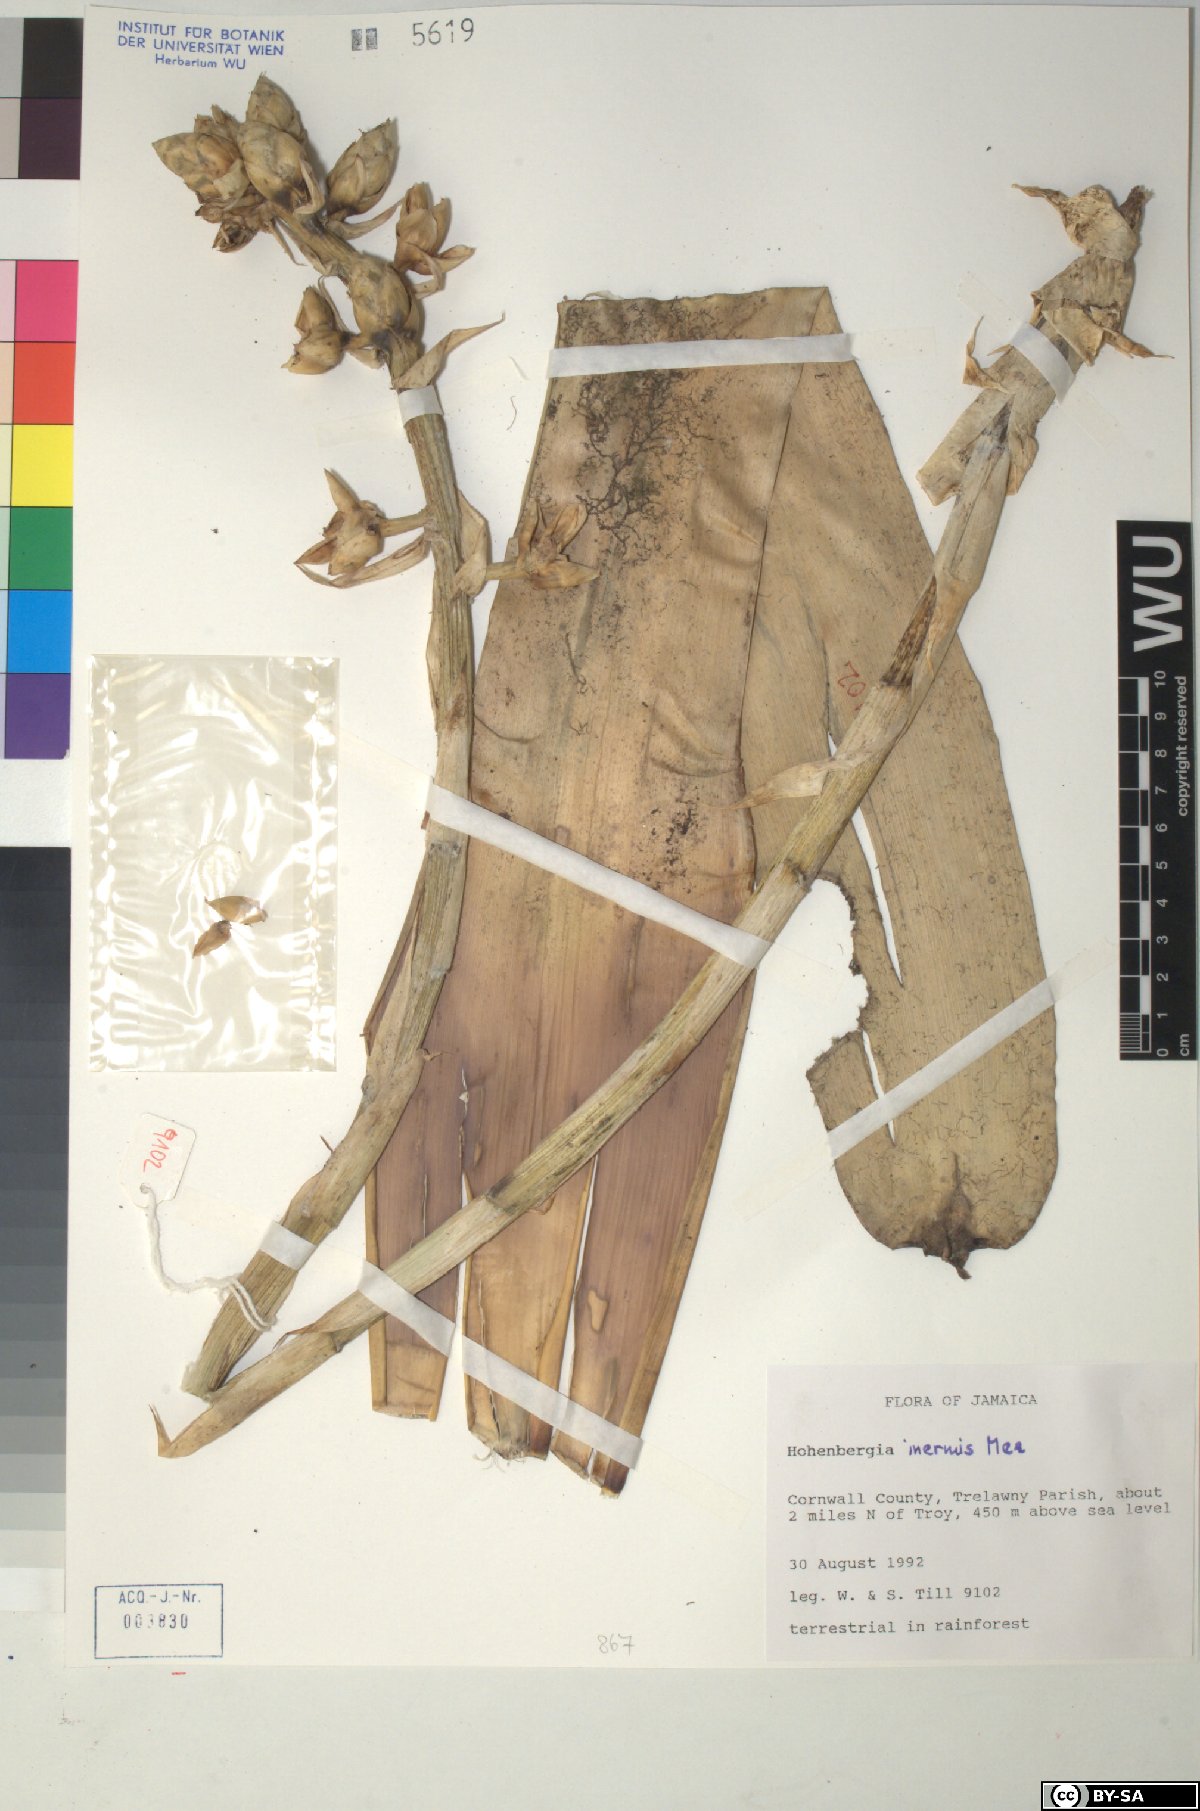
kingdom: Plantae
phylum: Tracheophyta
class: Liliopsida
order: Poales
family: Bromeliaceae
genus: Wittmackia
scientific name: Wittmackia inermis
